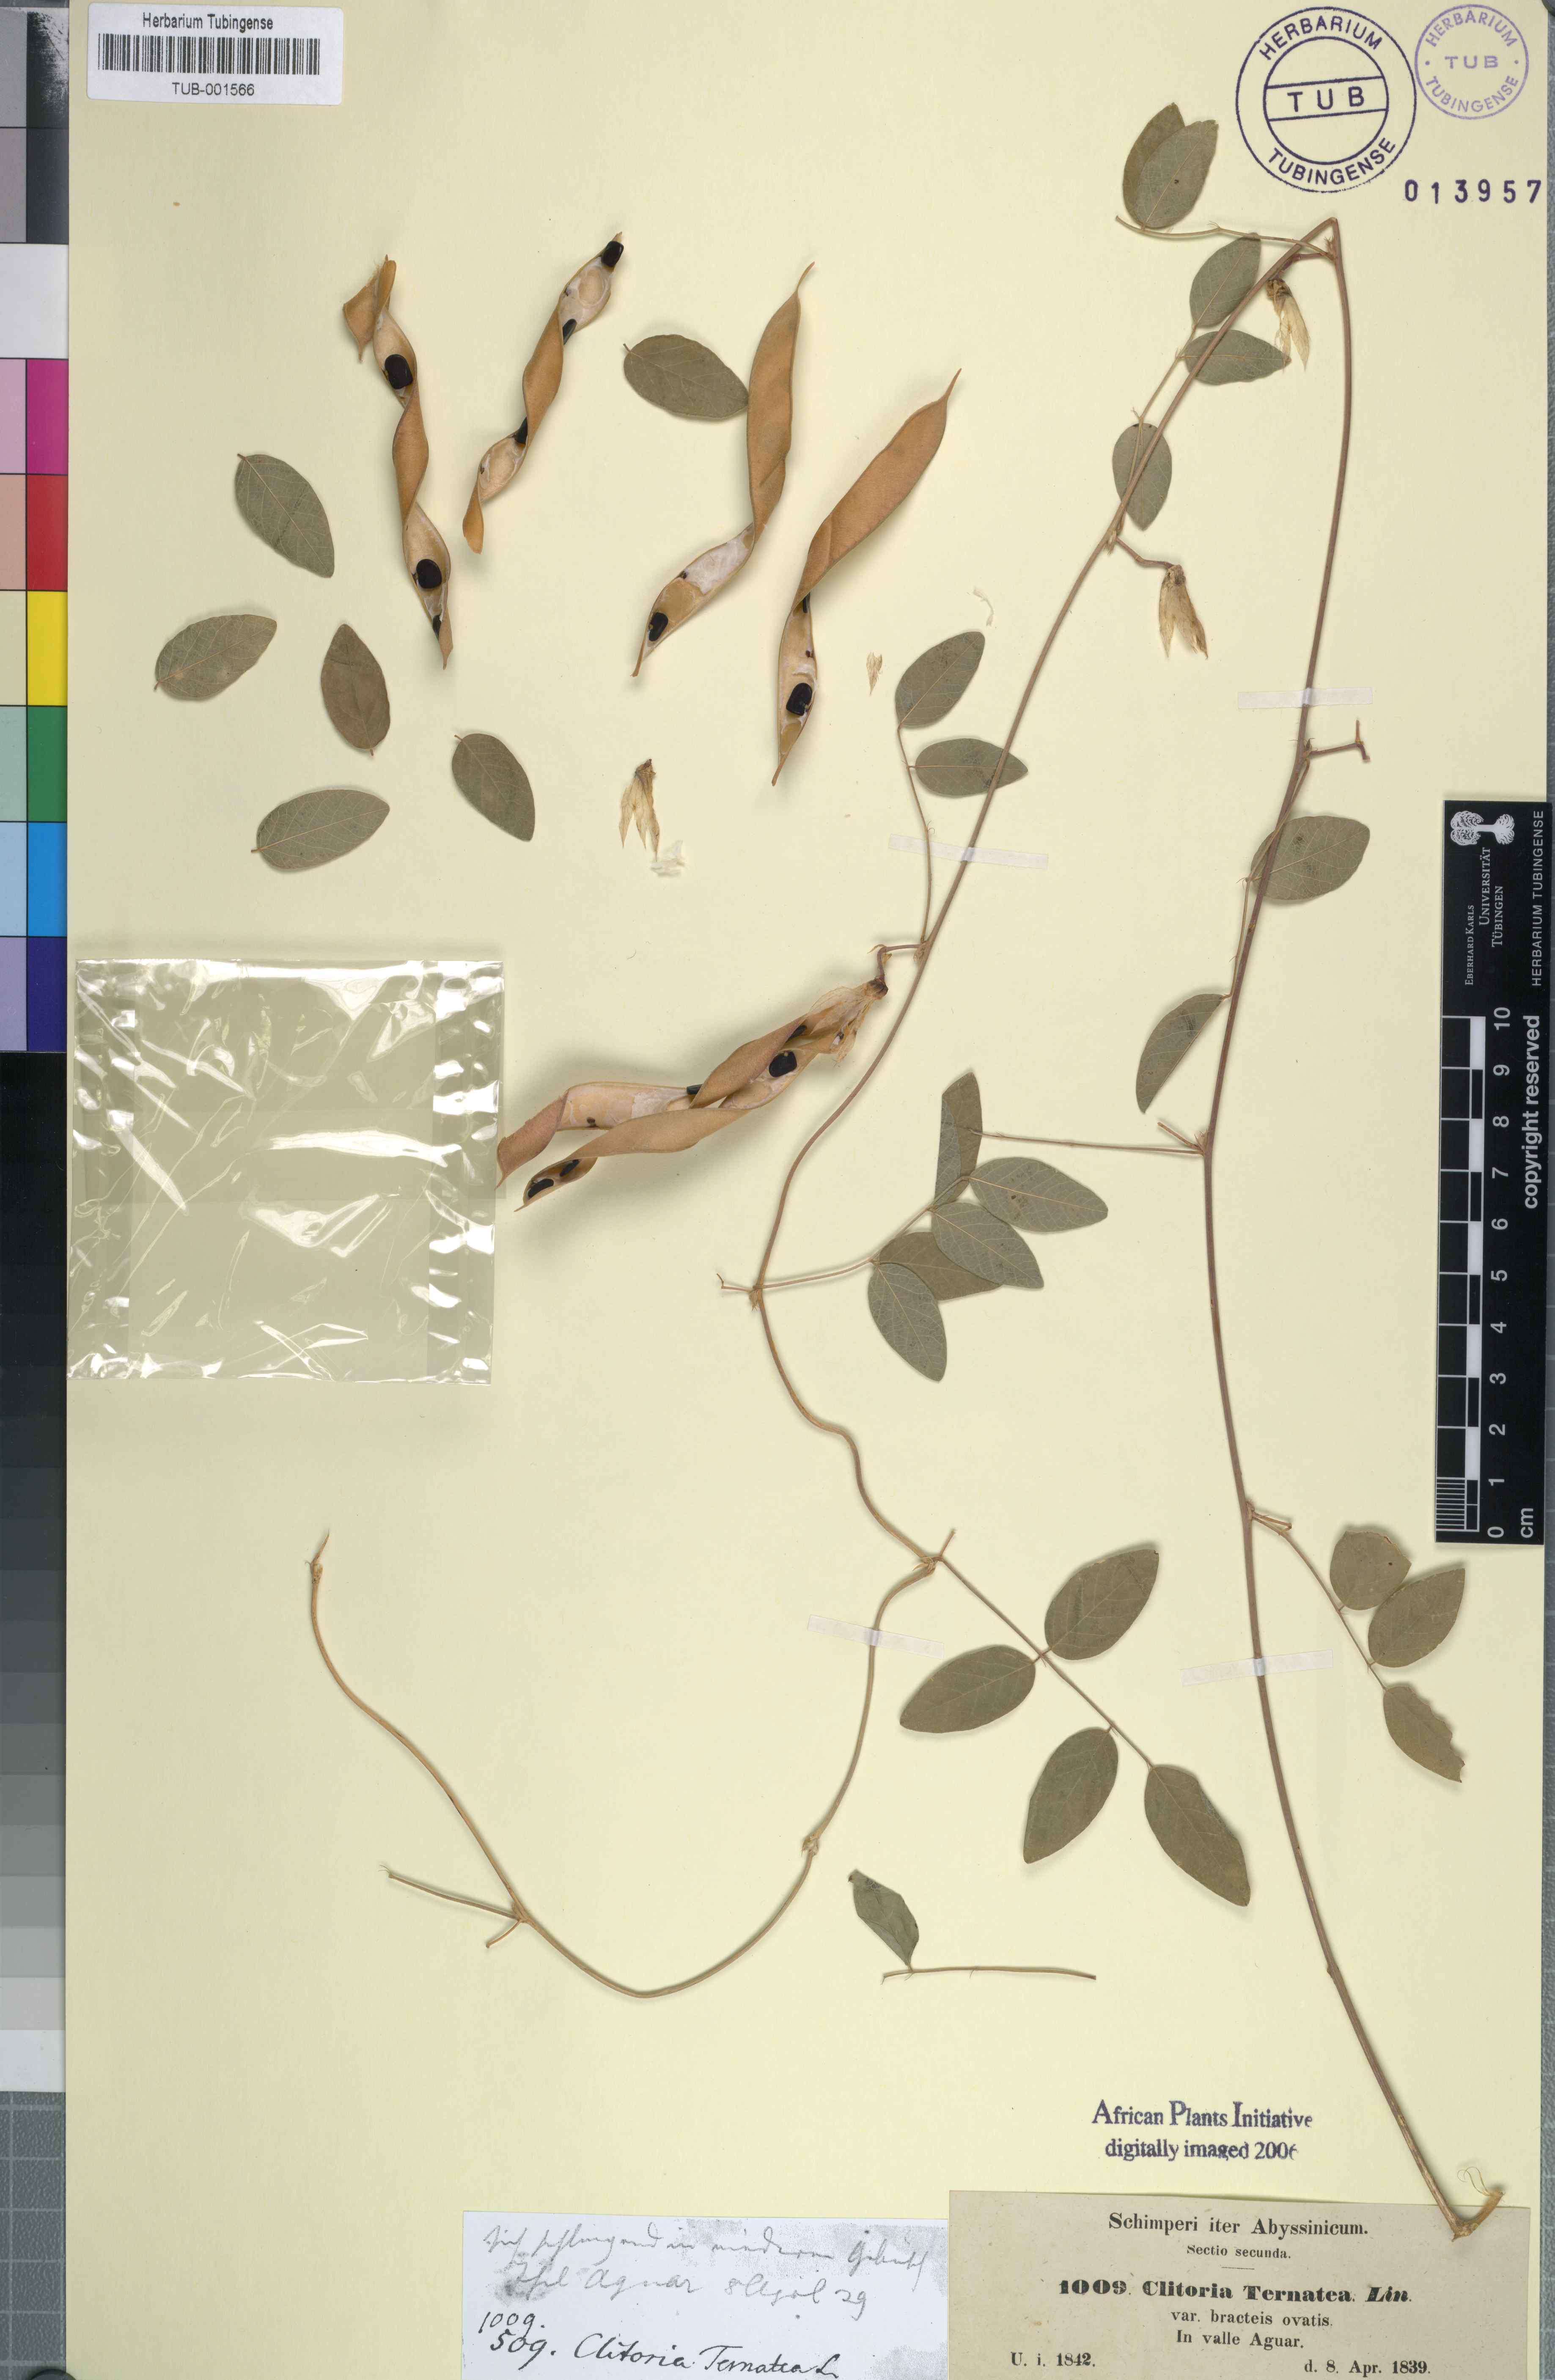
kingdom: Plantae
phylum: Tracheophyta
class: Magnoliopsida
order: Fabales
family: Fabaceae
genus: Clitoria
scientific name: Clitoria ternatea
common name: Asian pigeonwings
